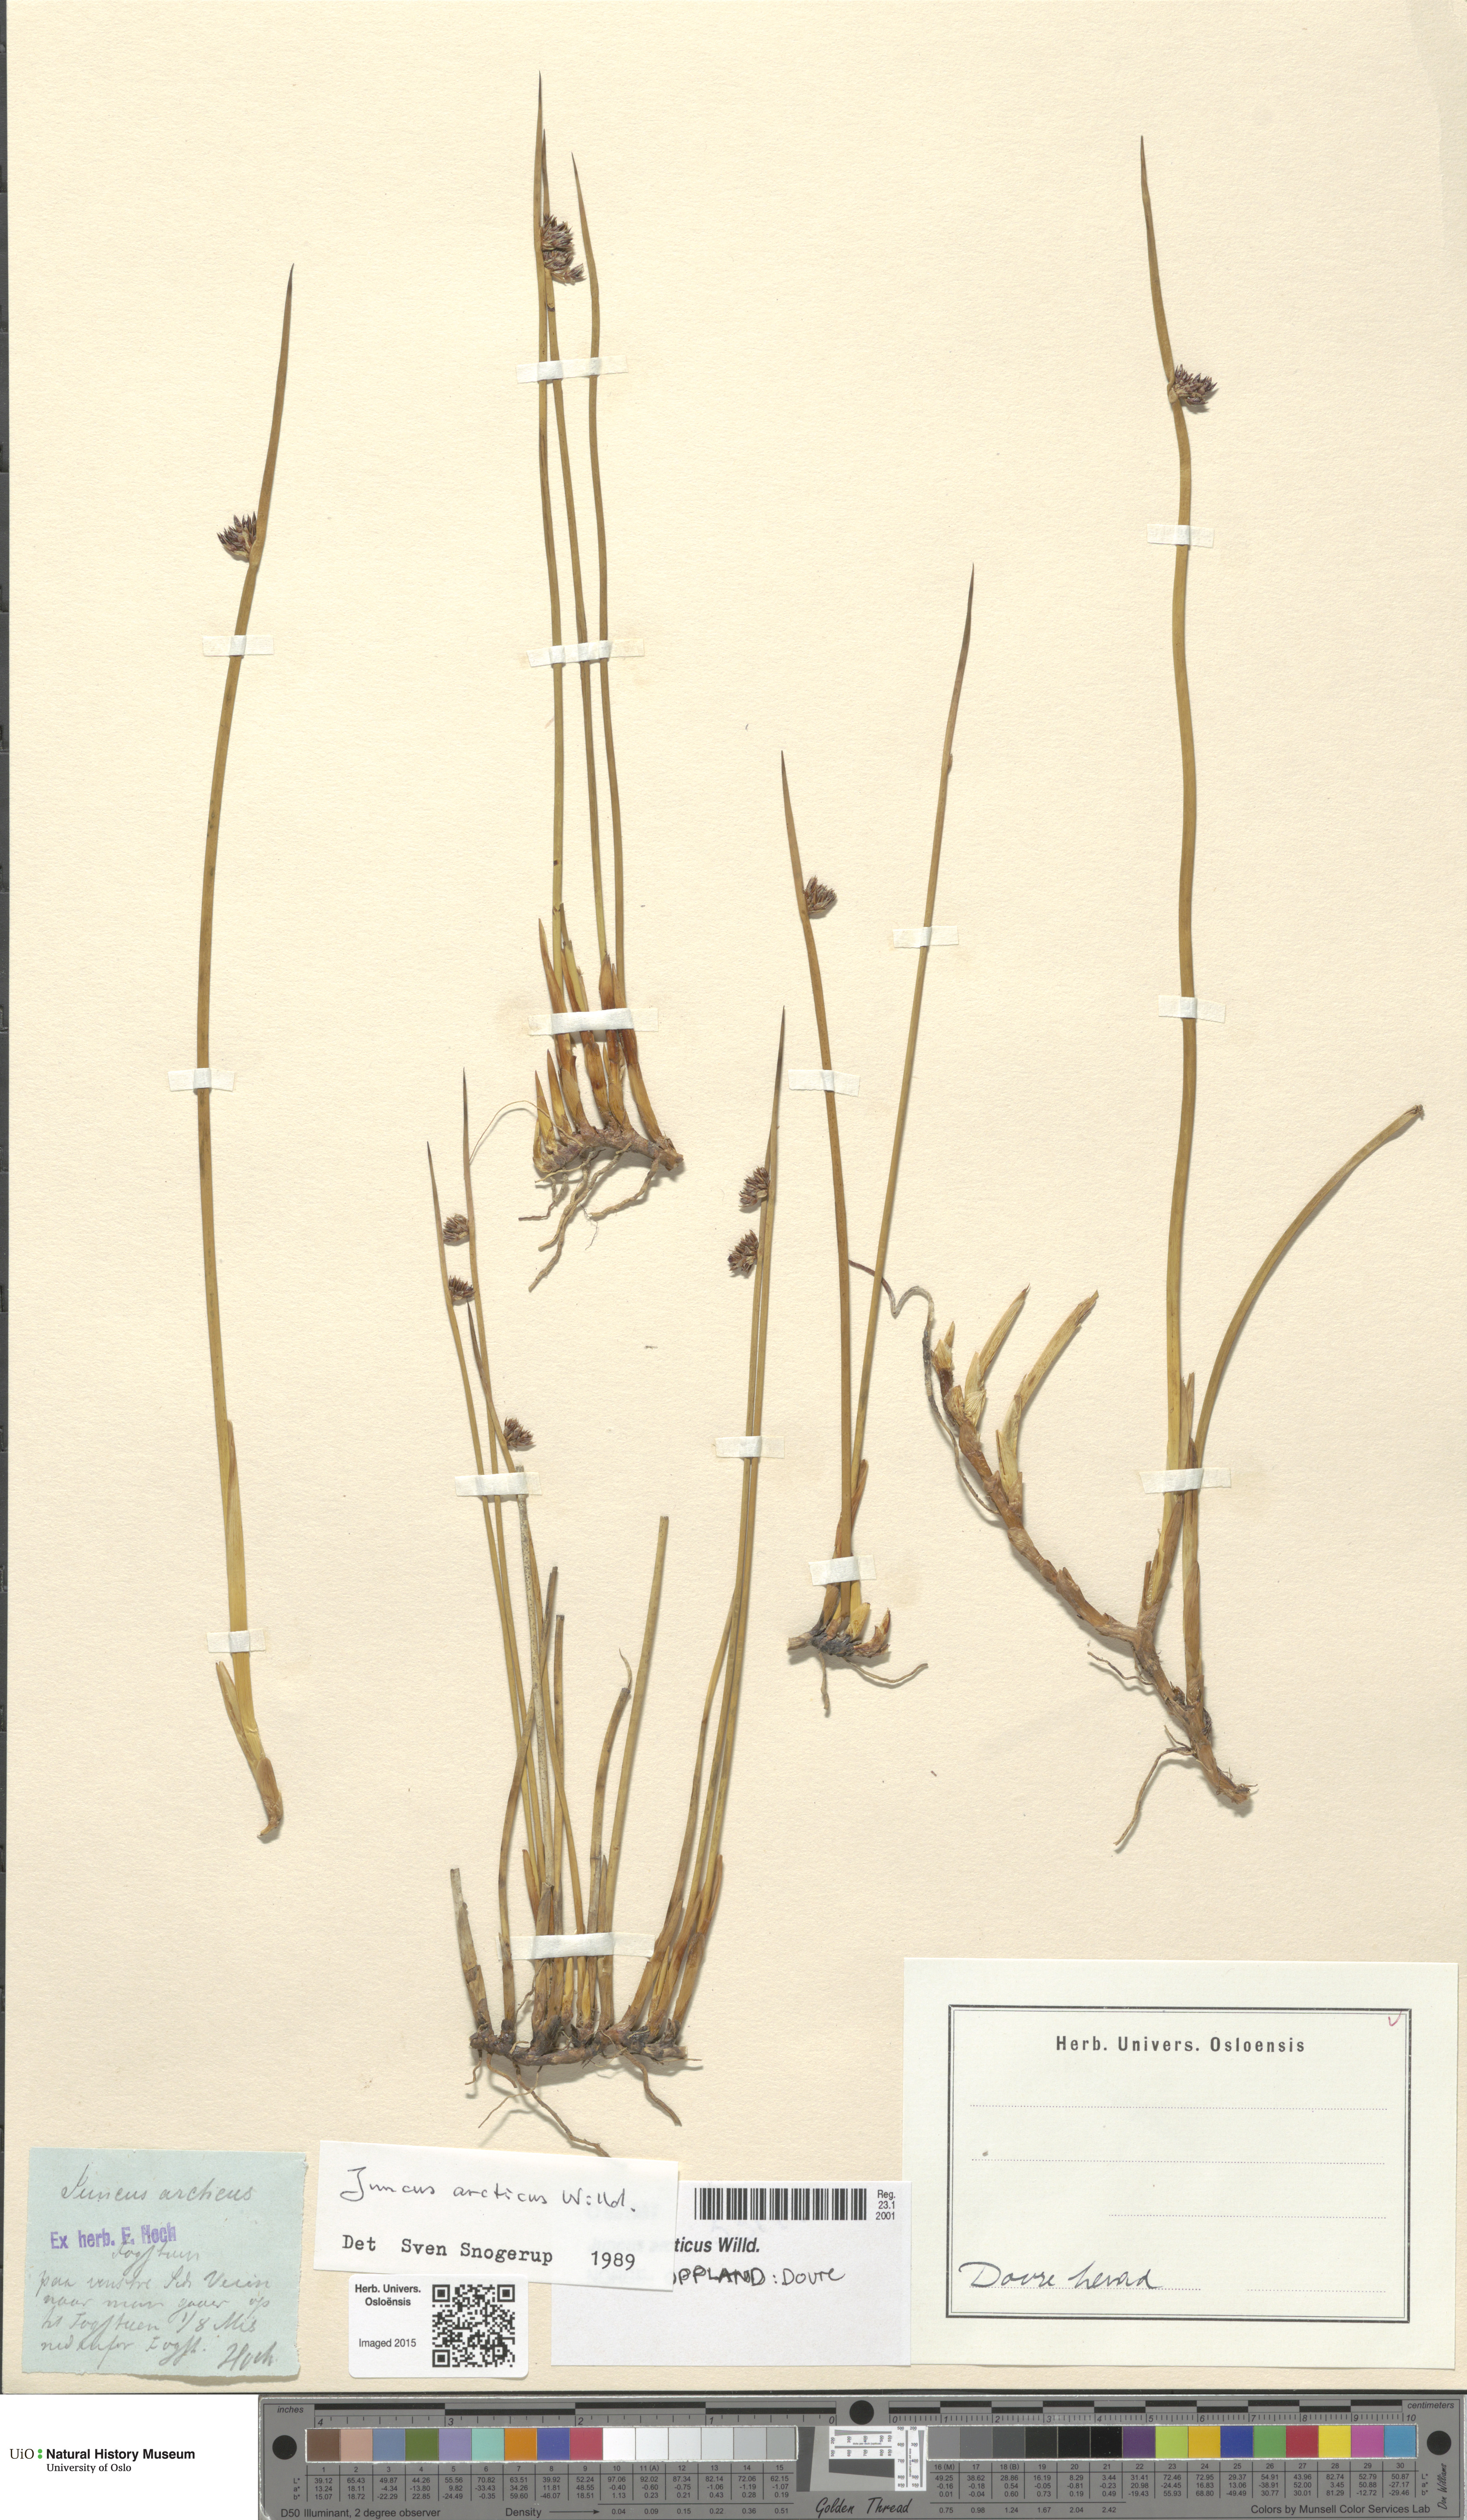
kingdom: Plantae
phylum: Tracheophyta
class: Liliopsida
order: Poales
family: Juncaceae
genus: Juncus
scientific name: Juncus arcticus
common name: Arctic rush
